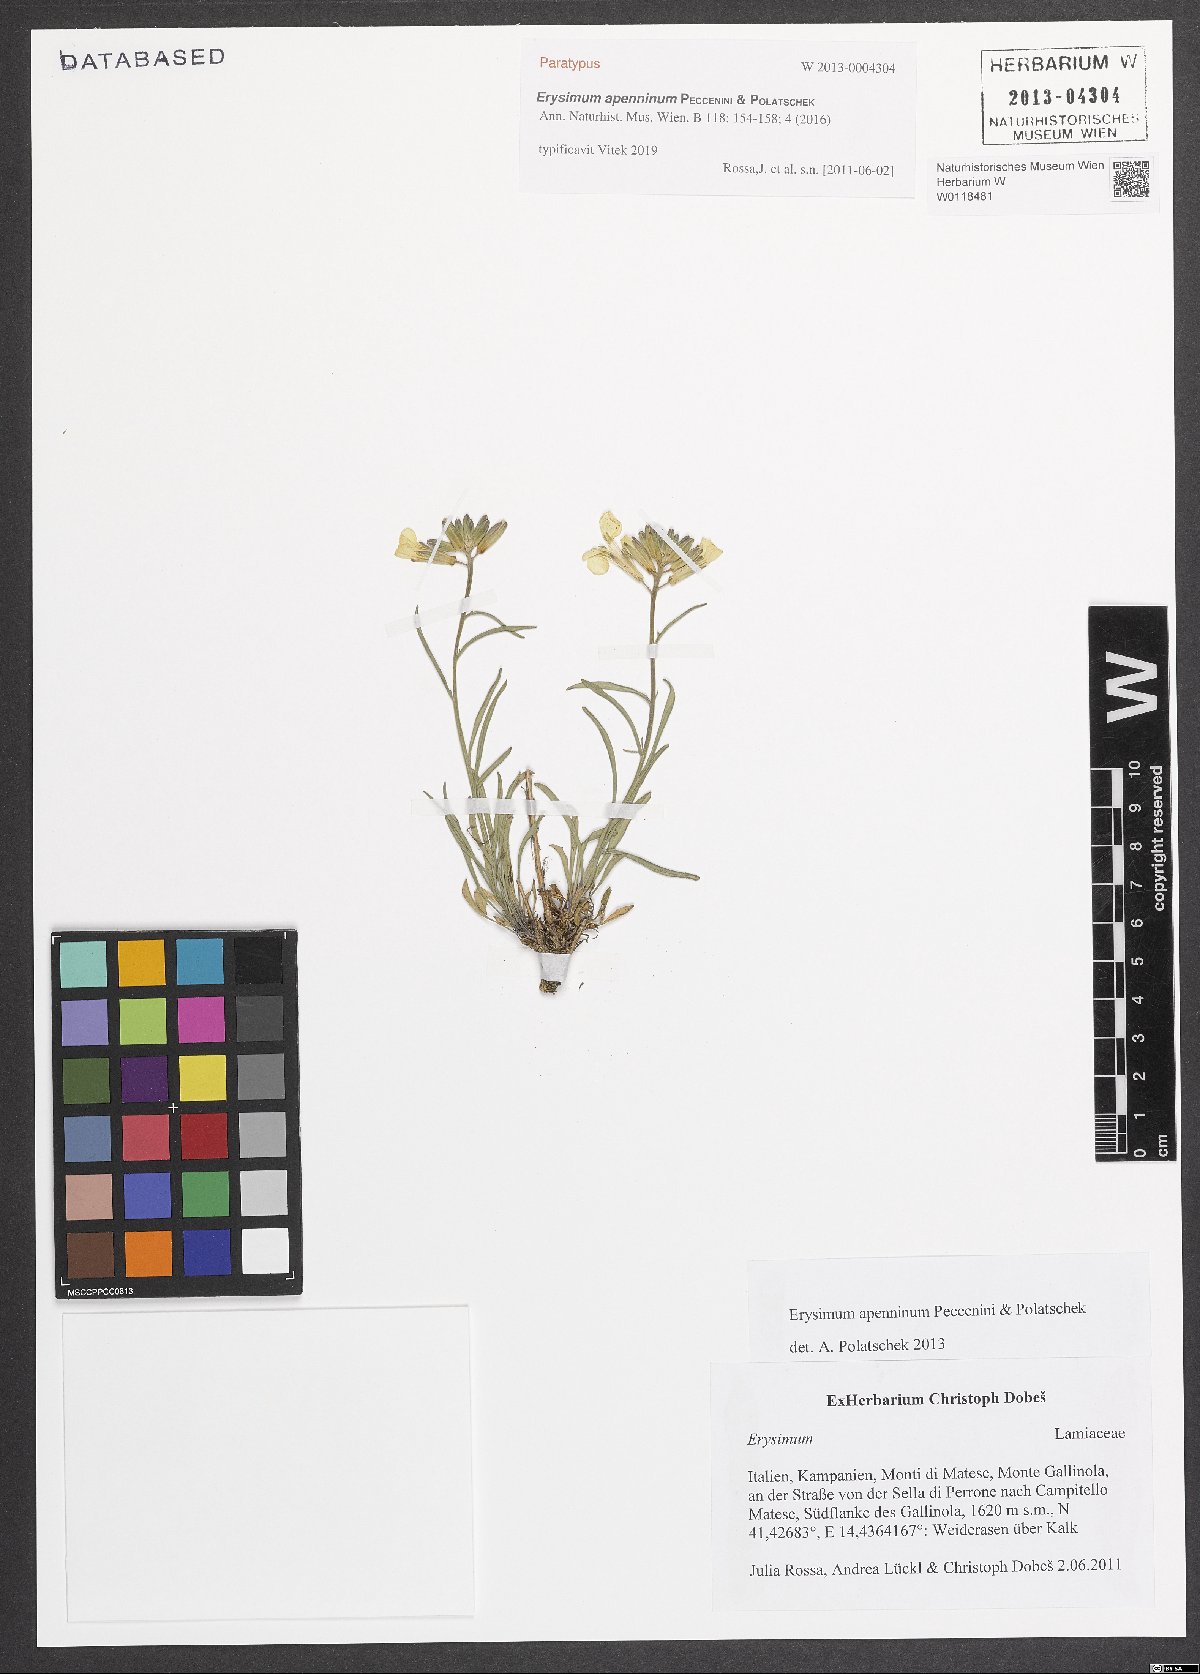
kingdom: Plantae
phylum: Tracheophyta
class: Magnoliopsida
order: Brassicales
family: Brassicaceae
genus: Erysimum
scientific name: Erysimum apenninum
